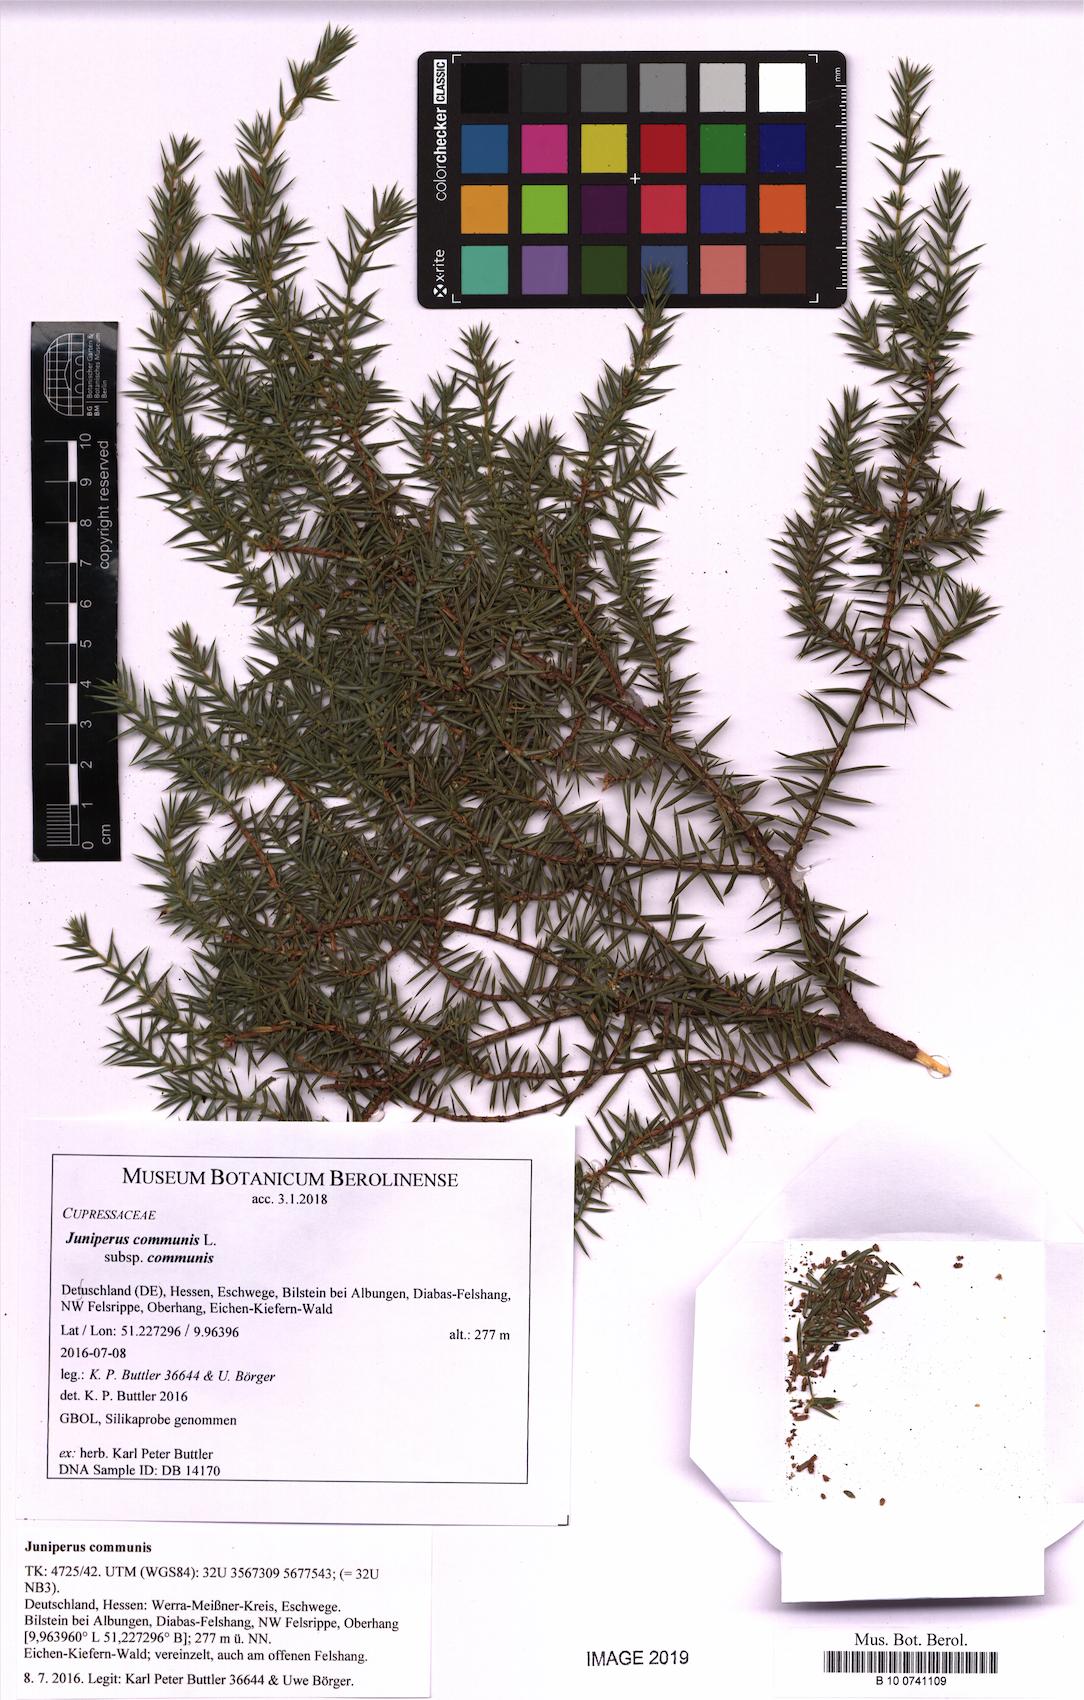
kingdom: Plantae
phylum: Tracheophyta
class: Pinopsida
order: Pinales
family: Cupressaceae
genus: Juniperus
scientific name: Juniperus communis
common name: Common juniper
